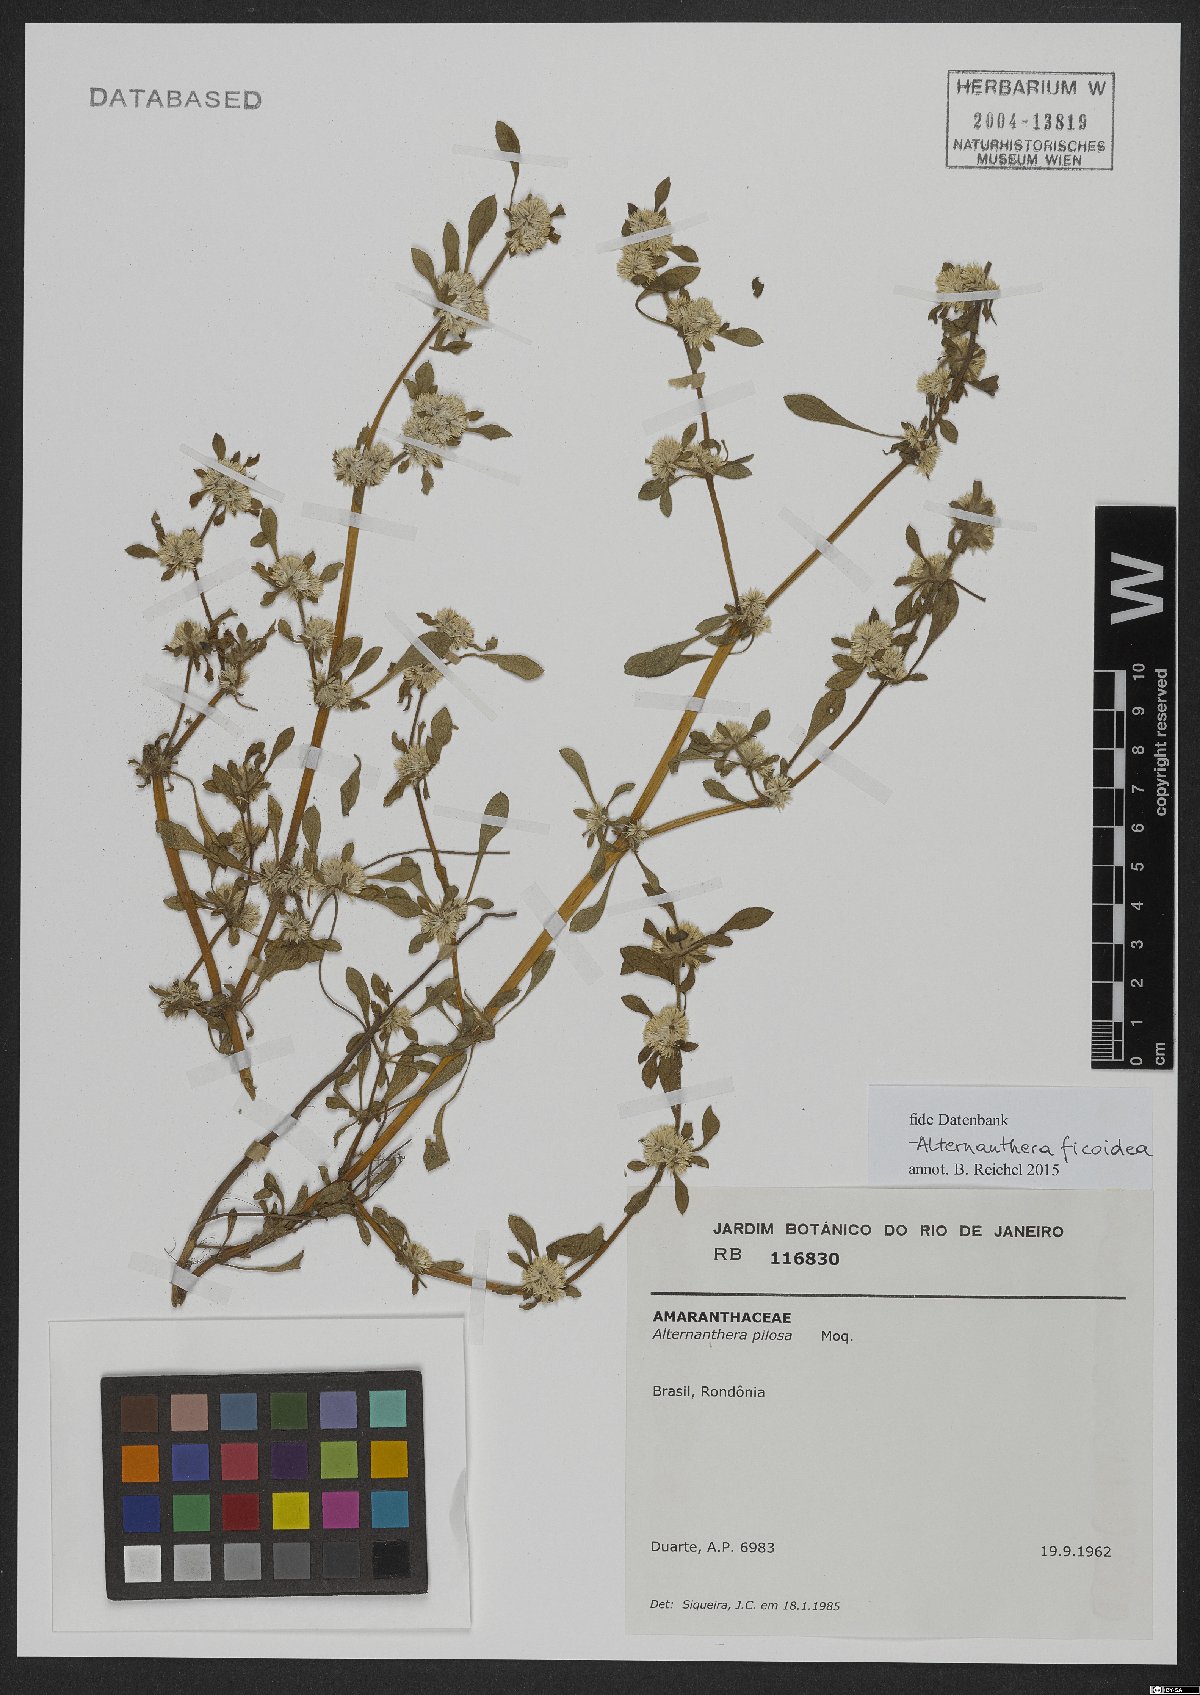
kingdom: Plantae
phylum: Tracheophyta
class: Magnoliopsida
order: Caryophyllales
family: Amaranthaceae
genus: Alternanthera
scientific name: Alternanthera ficoidea
